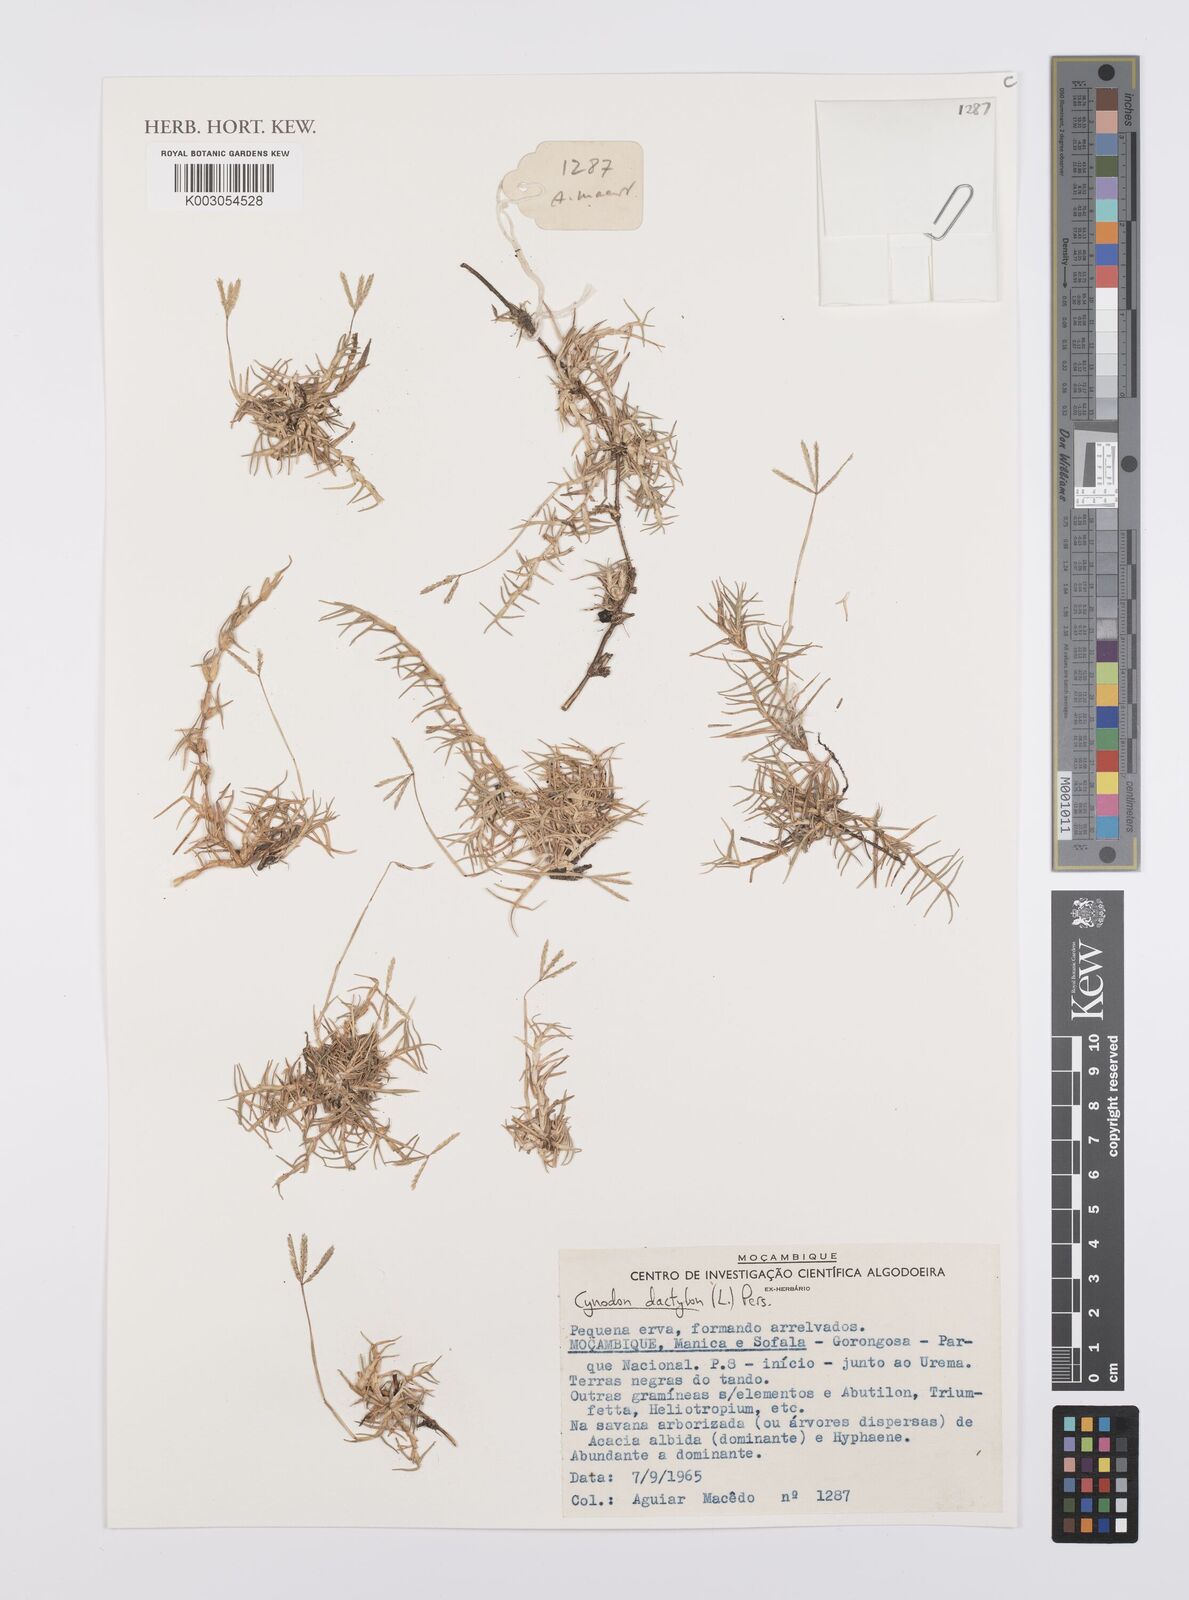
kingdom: Plantae
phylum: Tracheophyta
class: Liliopsida
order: Poales
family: Poaceae
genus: Cynodon
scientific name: Cynodon dactylon
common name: Bermuda grass
